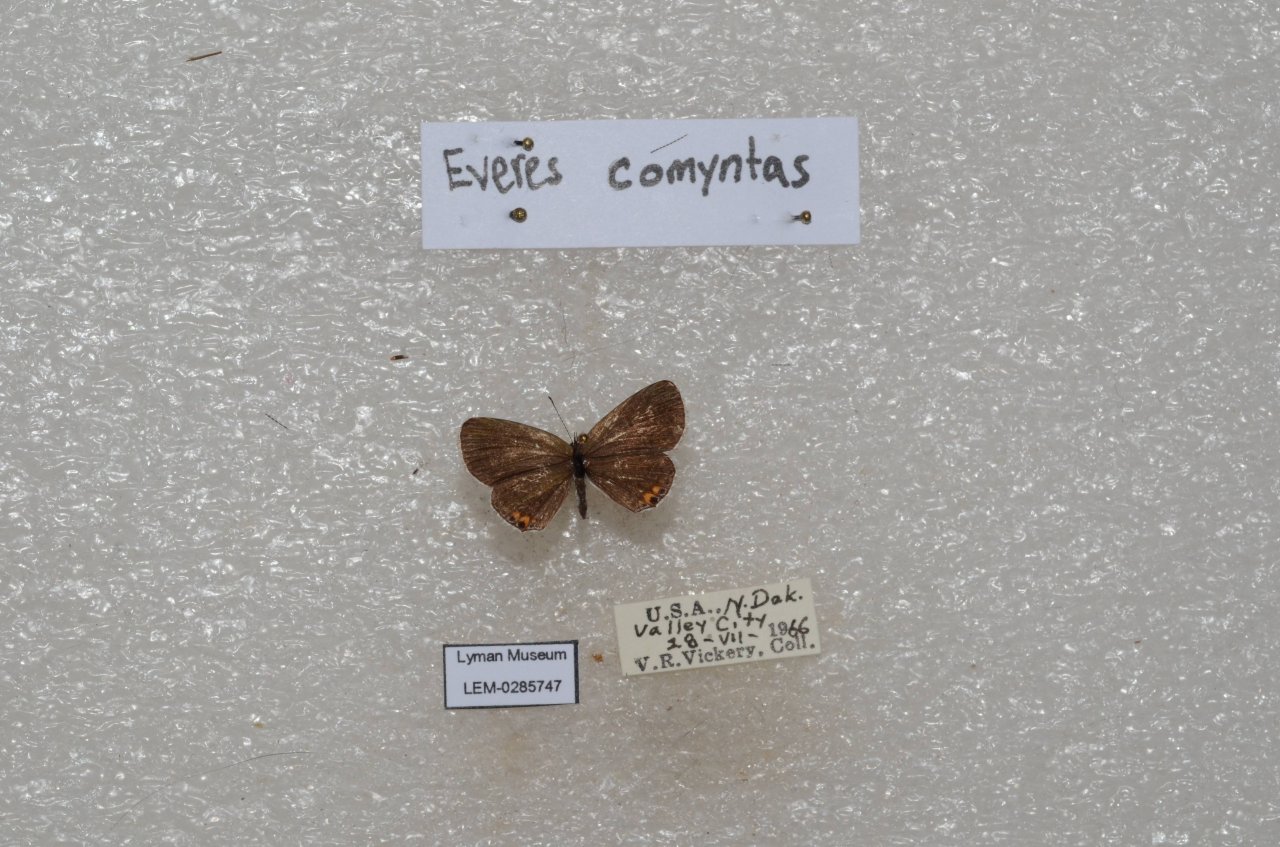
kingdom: Animalia
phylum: Arthropoda
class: Insecta
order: Lepidoptera
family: Lycaenidae
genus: Elkalyce
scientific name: Elkalyce comyntas
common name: Eastern Tailed-Blue
